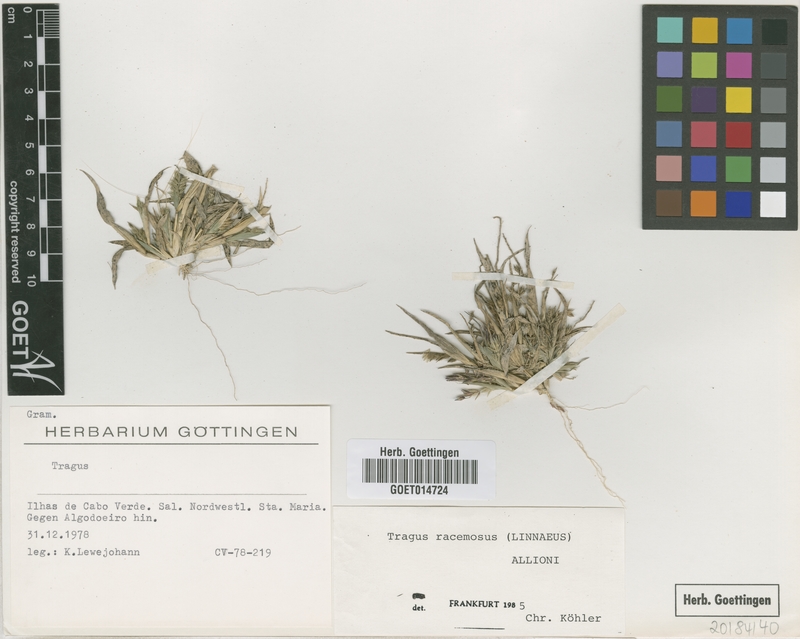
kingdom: Plantae
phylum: Tracheophyta
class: Liliopsida
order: Poales
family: Poaceae
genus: Tragus
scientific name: Tragus racemosus
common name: European bur-grass
